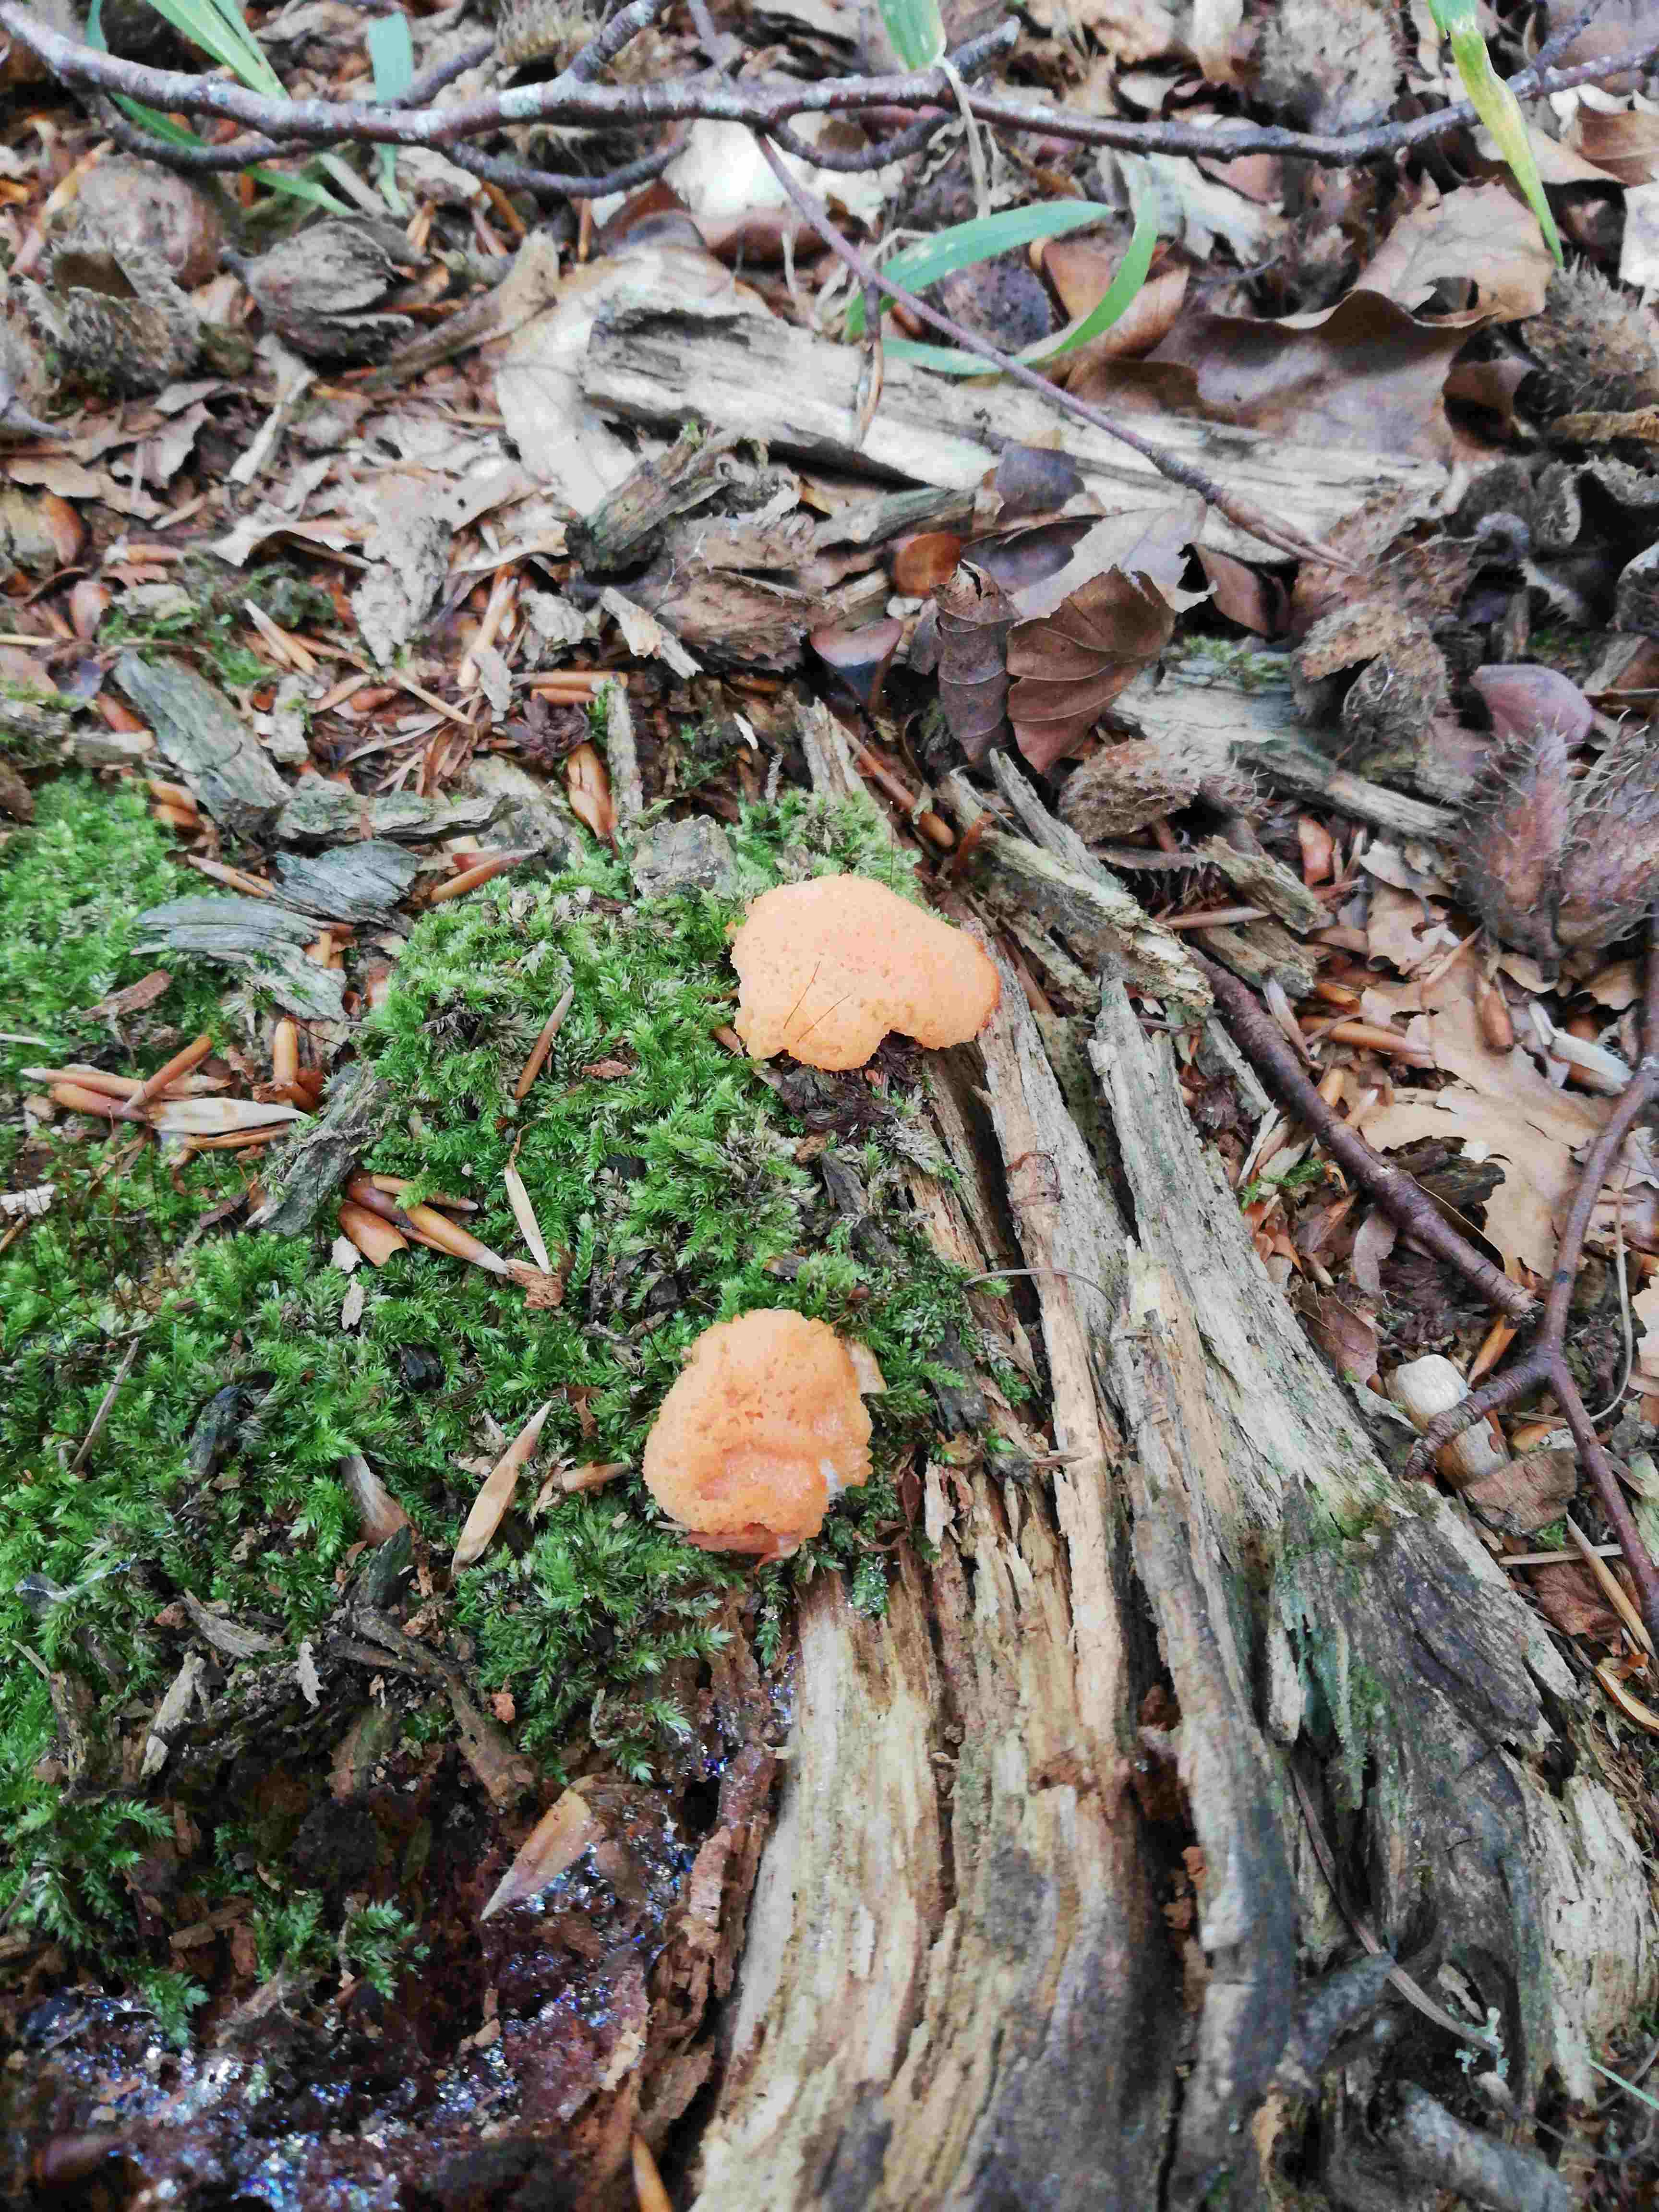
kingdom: Protozoa
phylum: Mycetozoa
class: Myxomycetes
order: Cribrariales
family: Tubiferaceae
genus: Tubifera
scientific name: Tubifera ferruginosa
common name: kanel-støvrør
